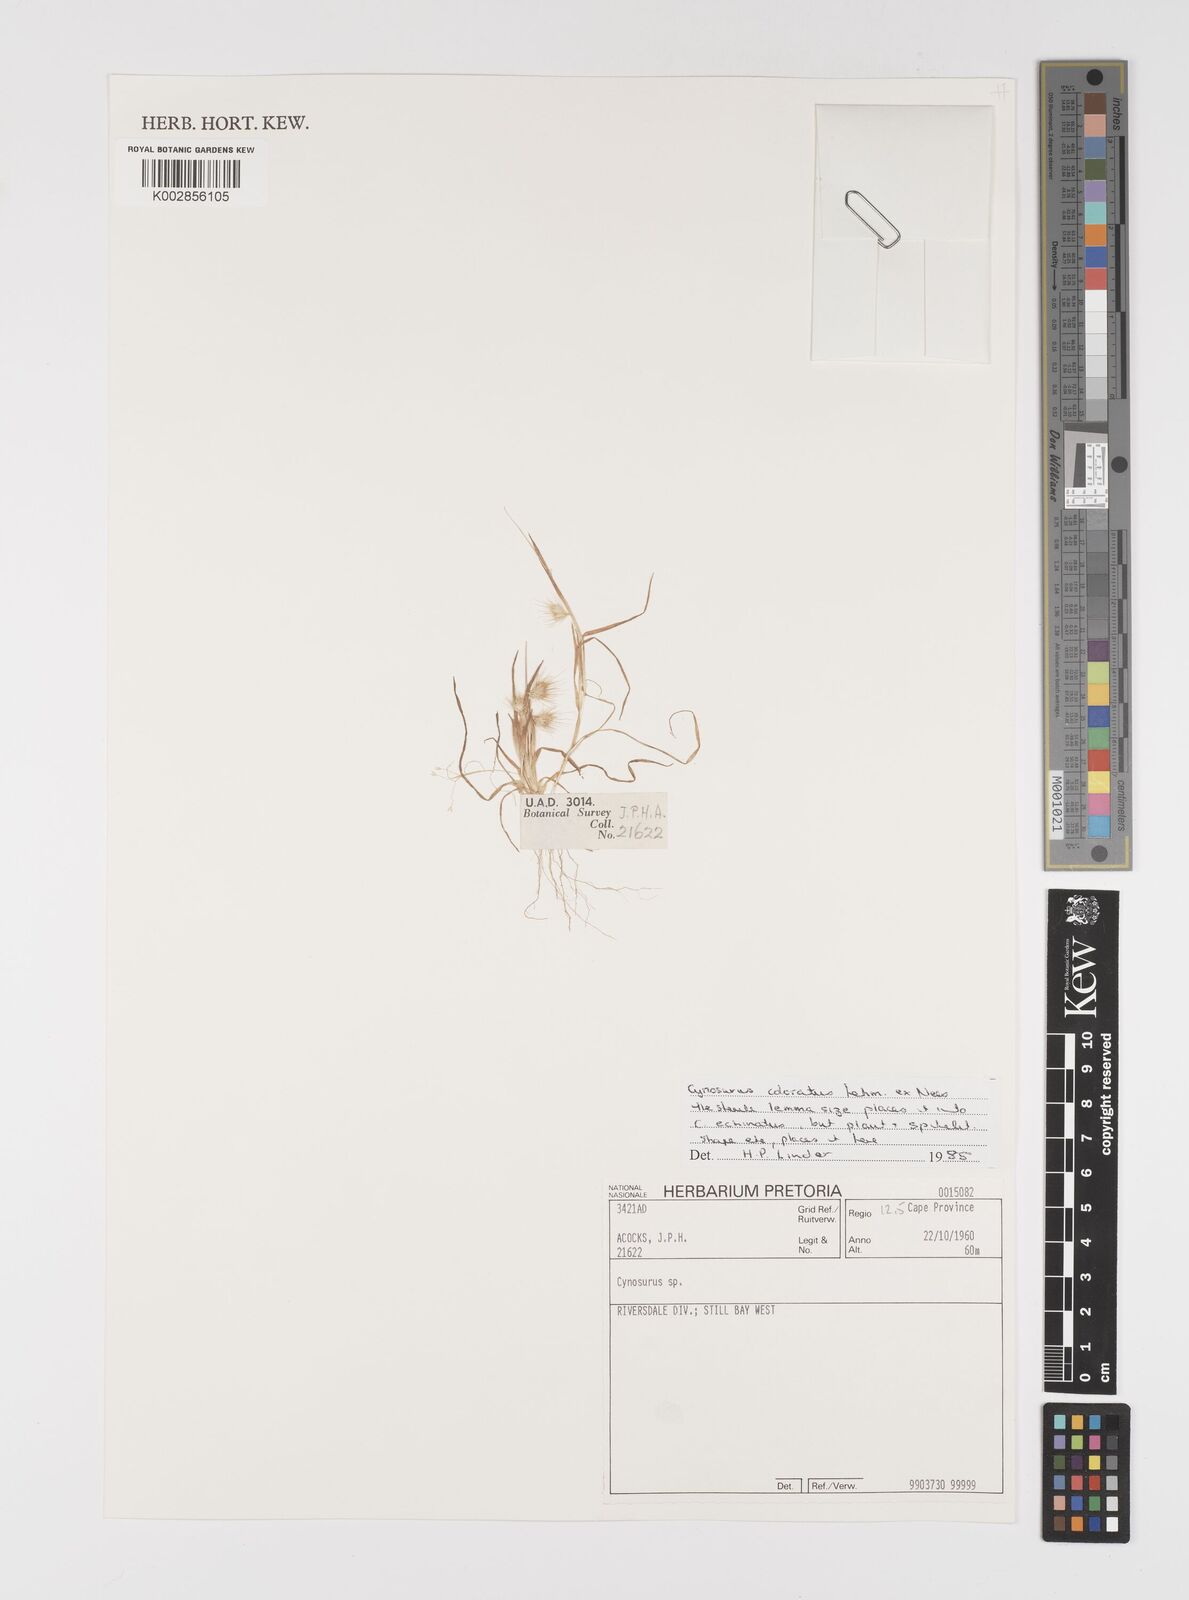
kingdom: Plantae
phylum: Tracheophyta
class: Liliopsida
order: Poales
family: Poaceae
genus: Cynosurus
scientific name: Cynosurus coloratus
